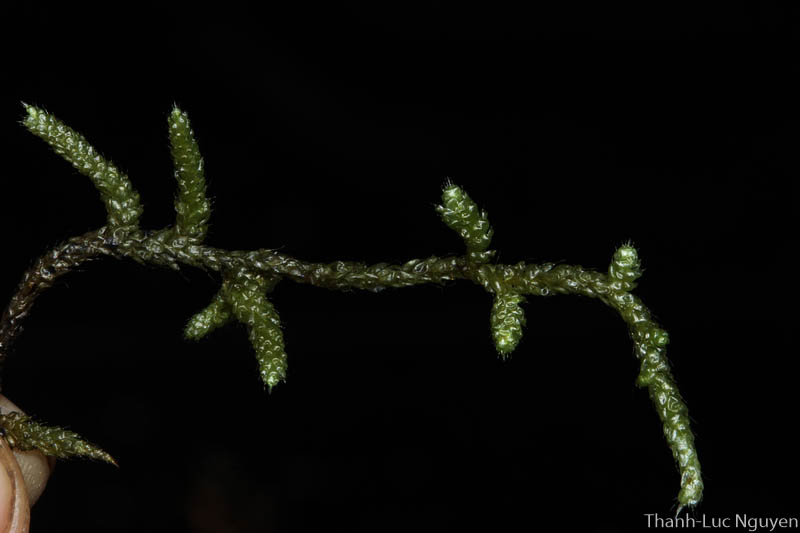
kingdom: Plantae
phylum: Bryophyta
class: Bryopsida
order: Hypnales
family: Meteoriaceae
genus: Meteorium
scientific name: Meteorium
